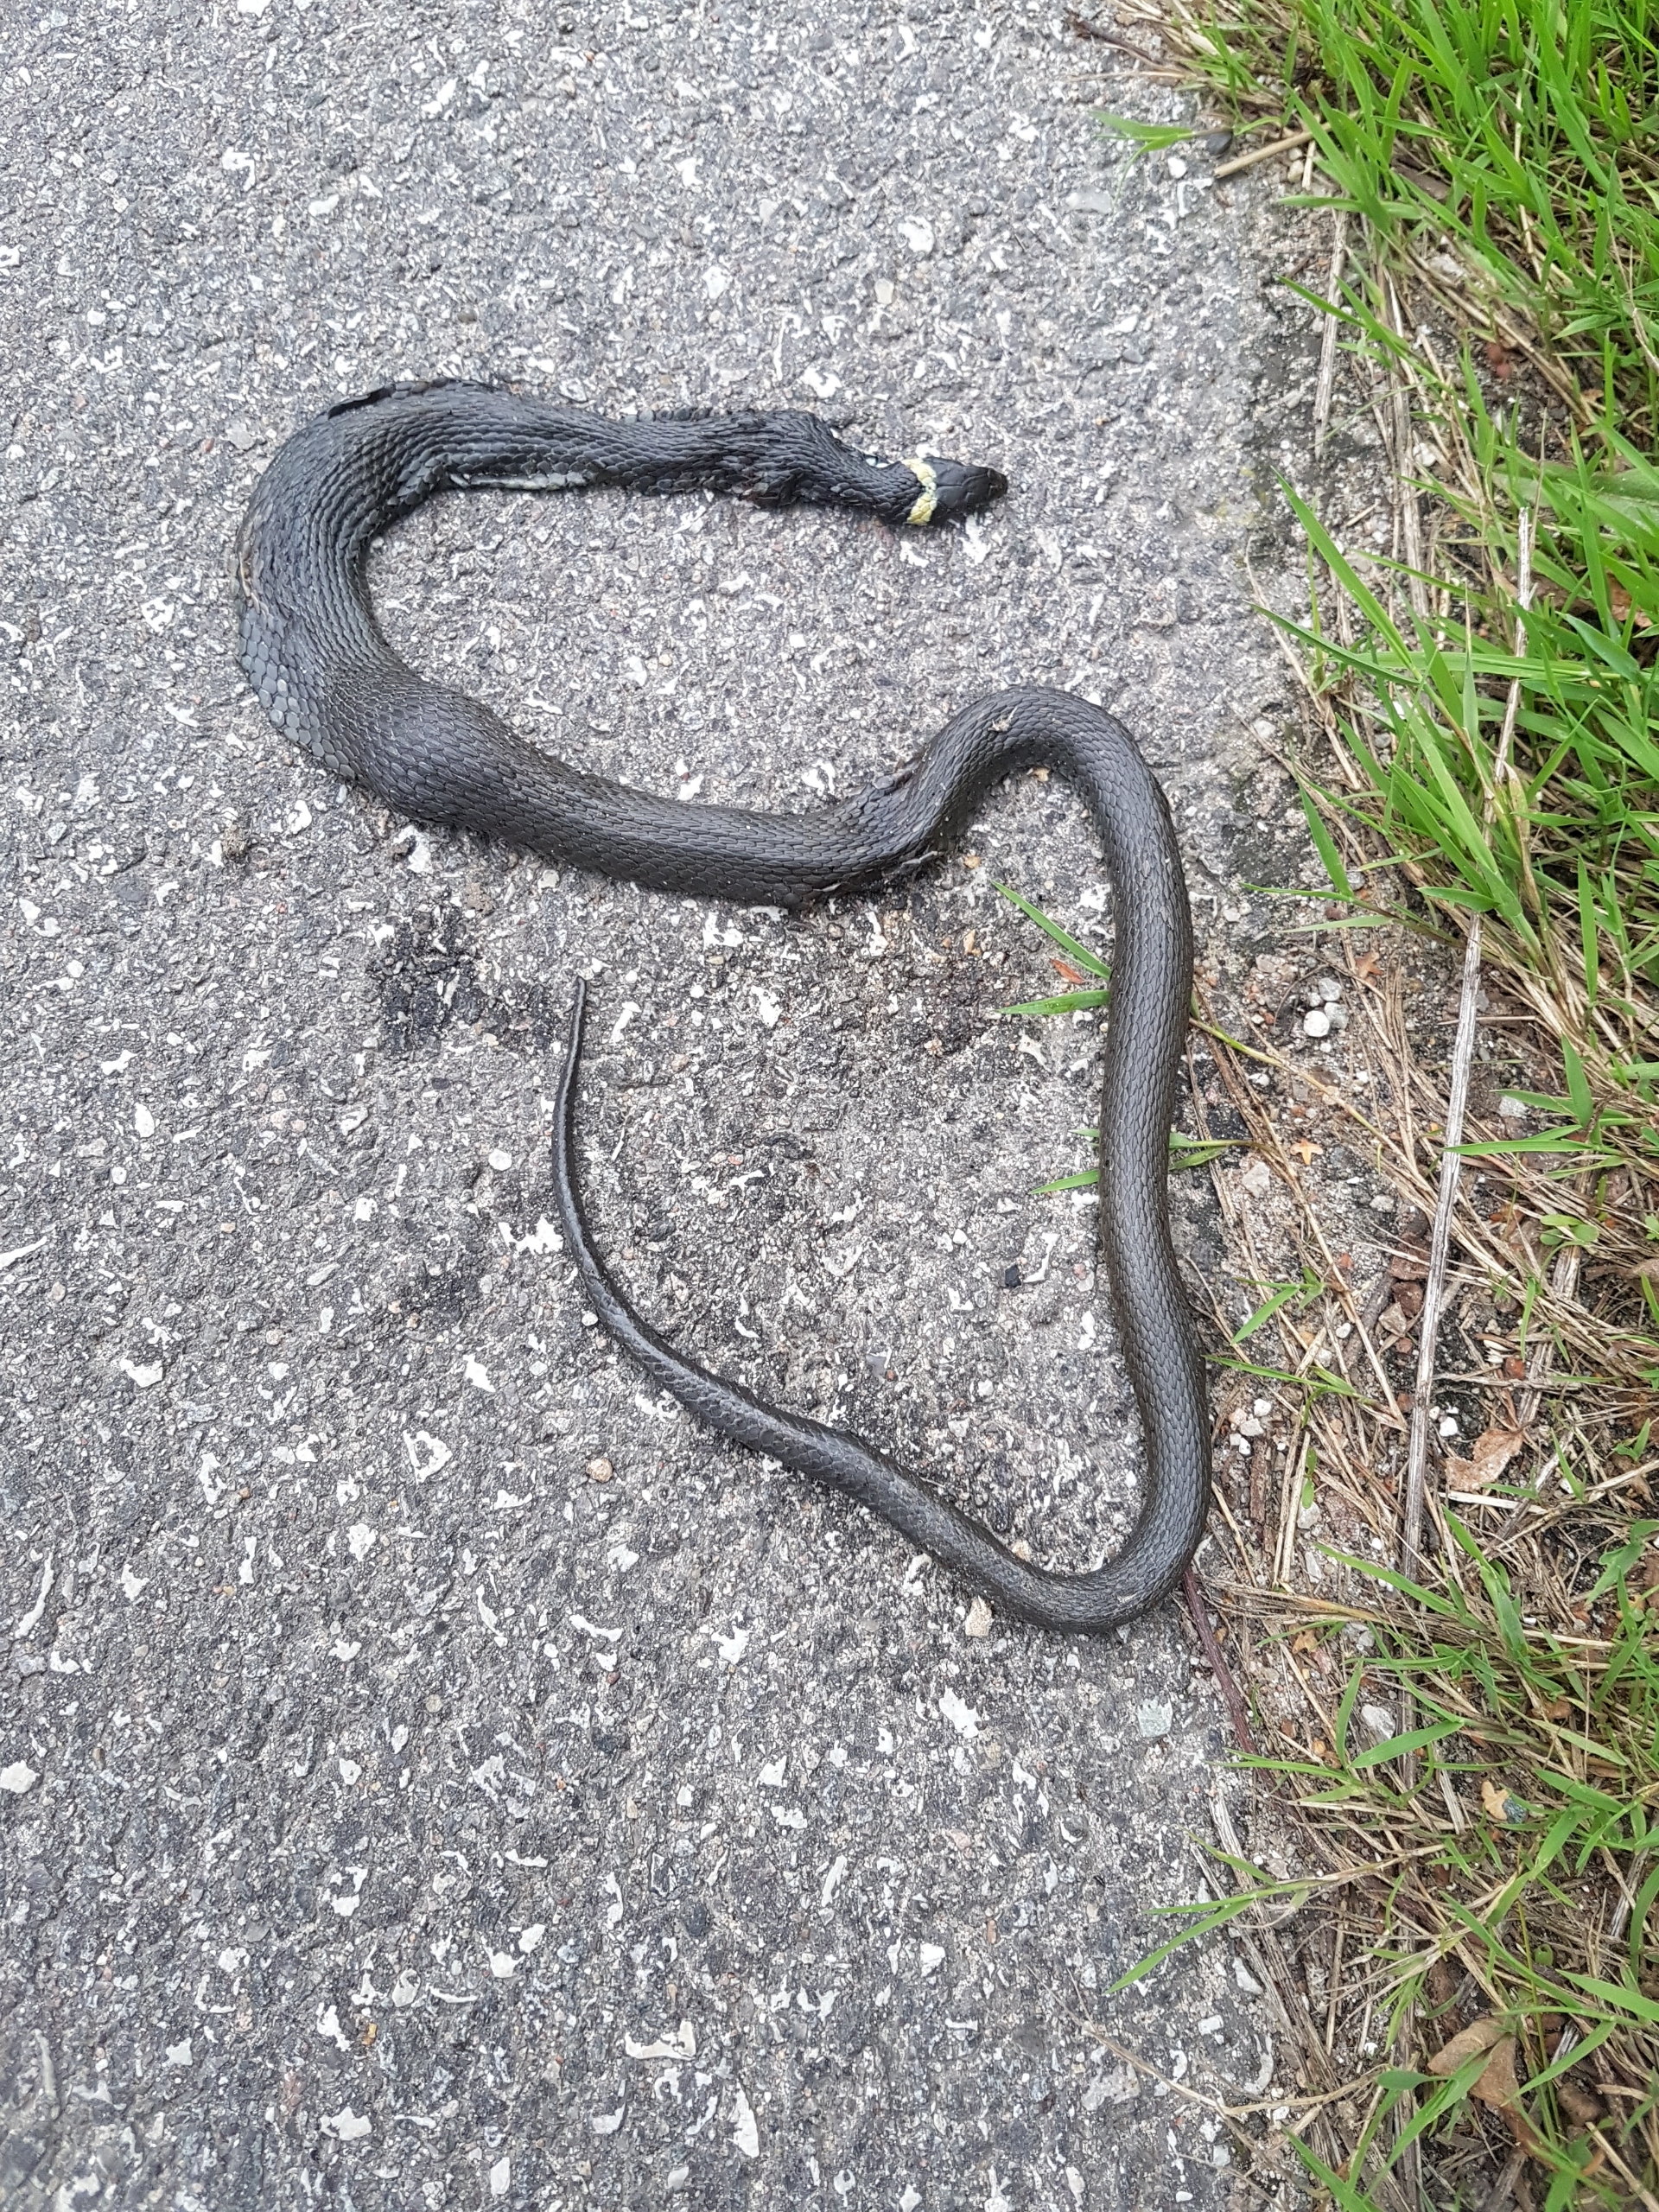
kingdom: Animalia
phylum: Chordata
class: Squamata
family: Colubridae
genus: Natrix
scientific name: Natrix natrix
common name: Snog
